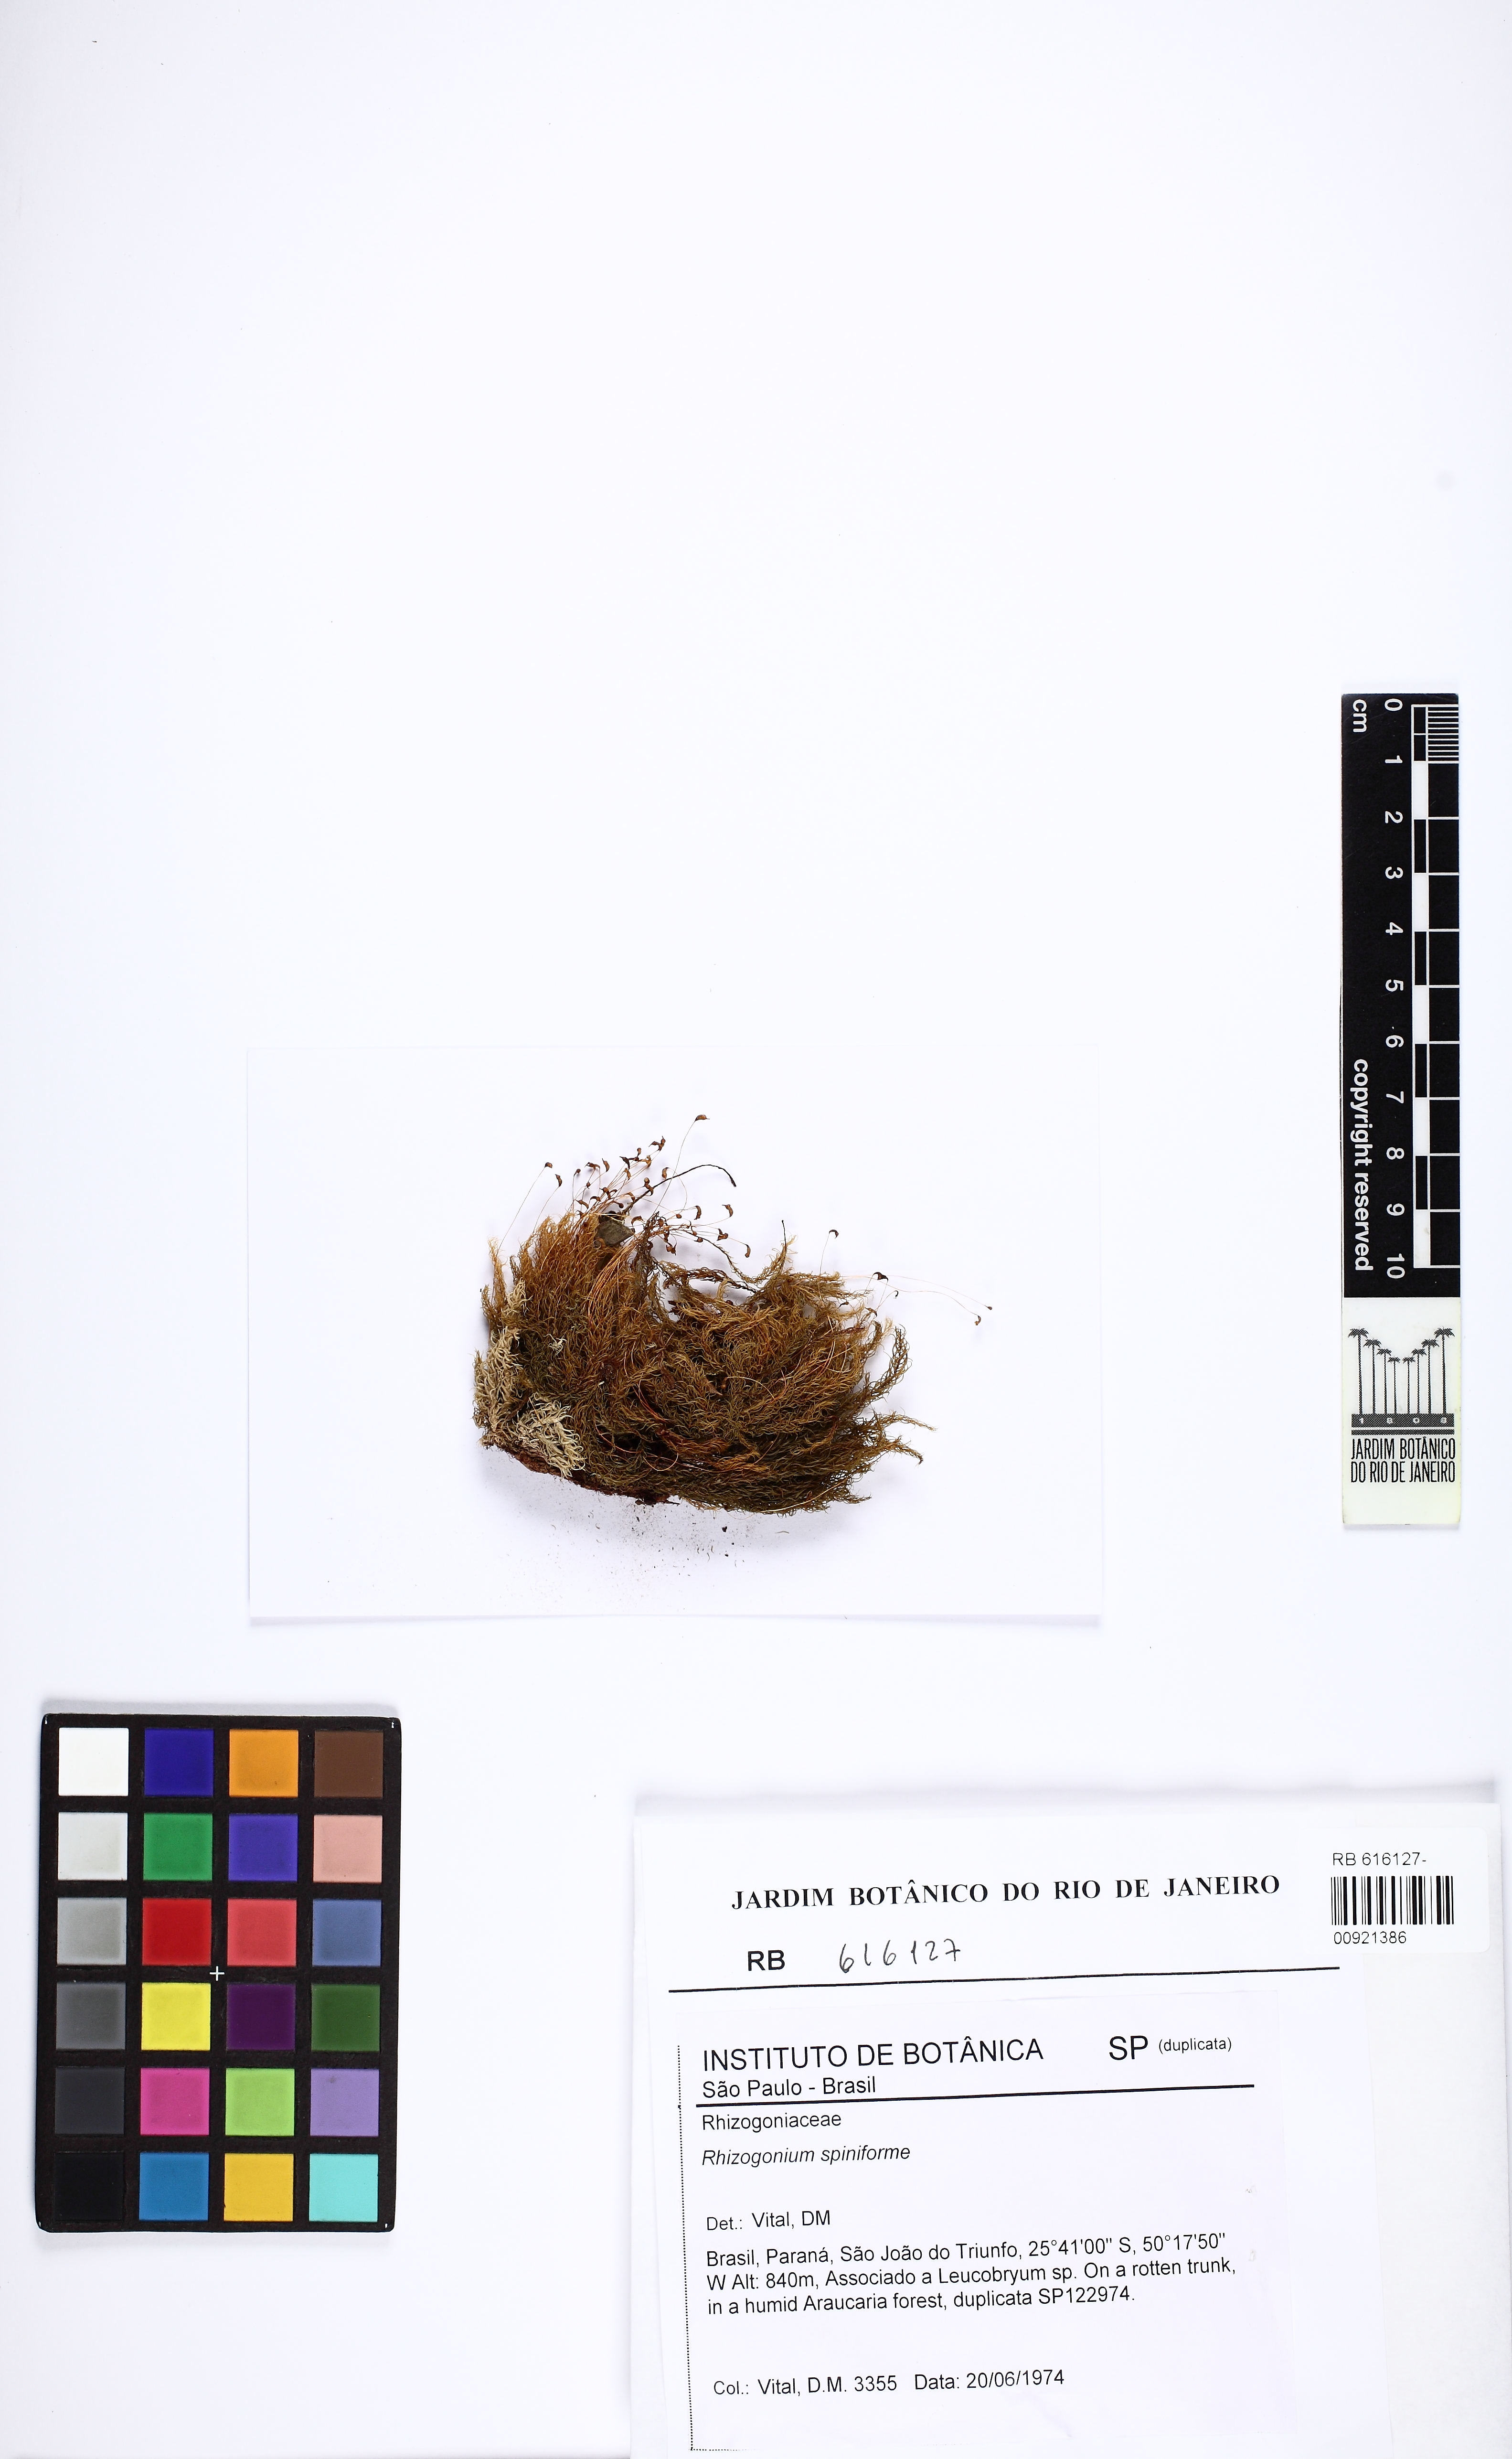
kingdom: Plantae
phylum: Bryophyta
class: Bryopsida
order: Rhizogoniales
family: Calomniaceae
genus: Pyrrhobryum
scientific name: Pyrrhobryum spiniforme
